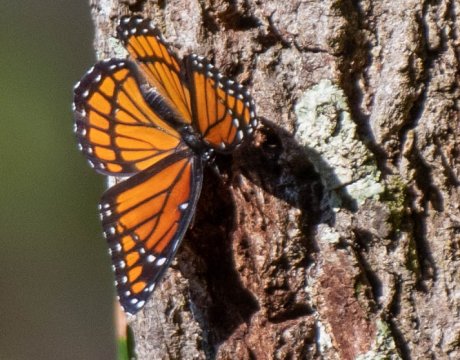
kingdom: Animalia
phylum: Arthropoda
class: Insecta
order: Lepidoptera
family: Nymphalidae
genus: Limenitis
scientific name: Limenitis archippus
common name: Viceroy
